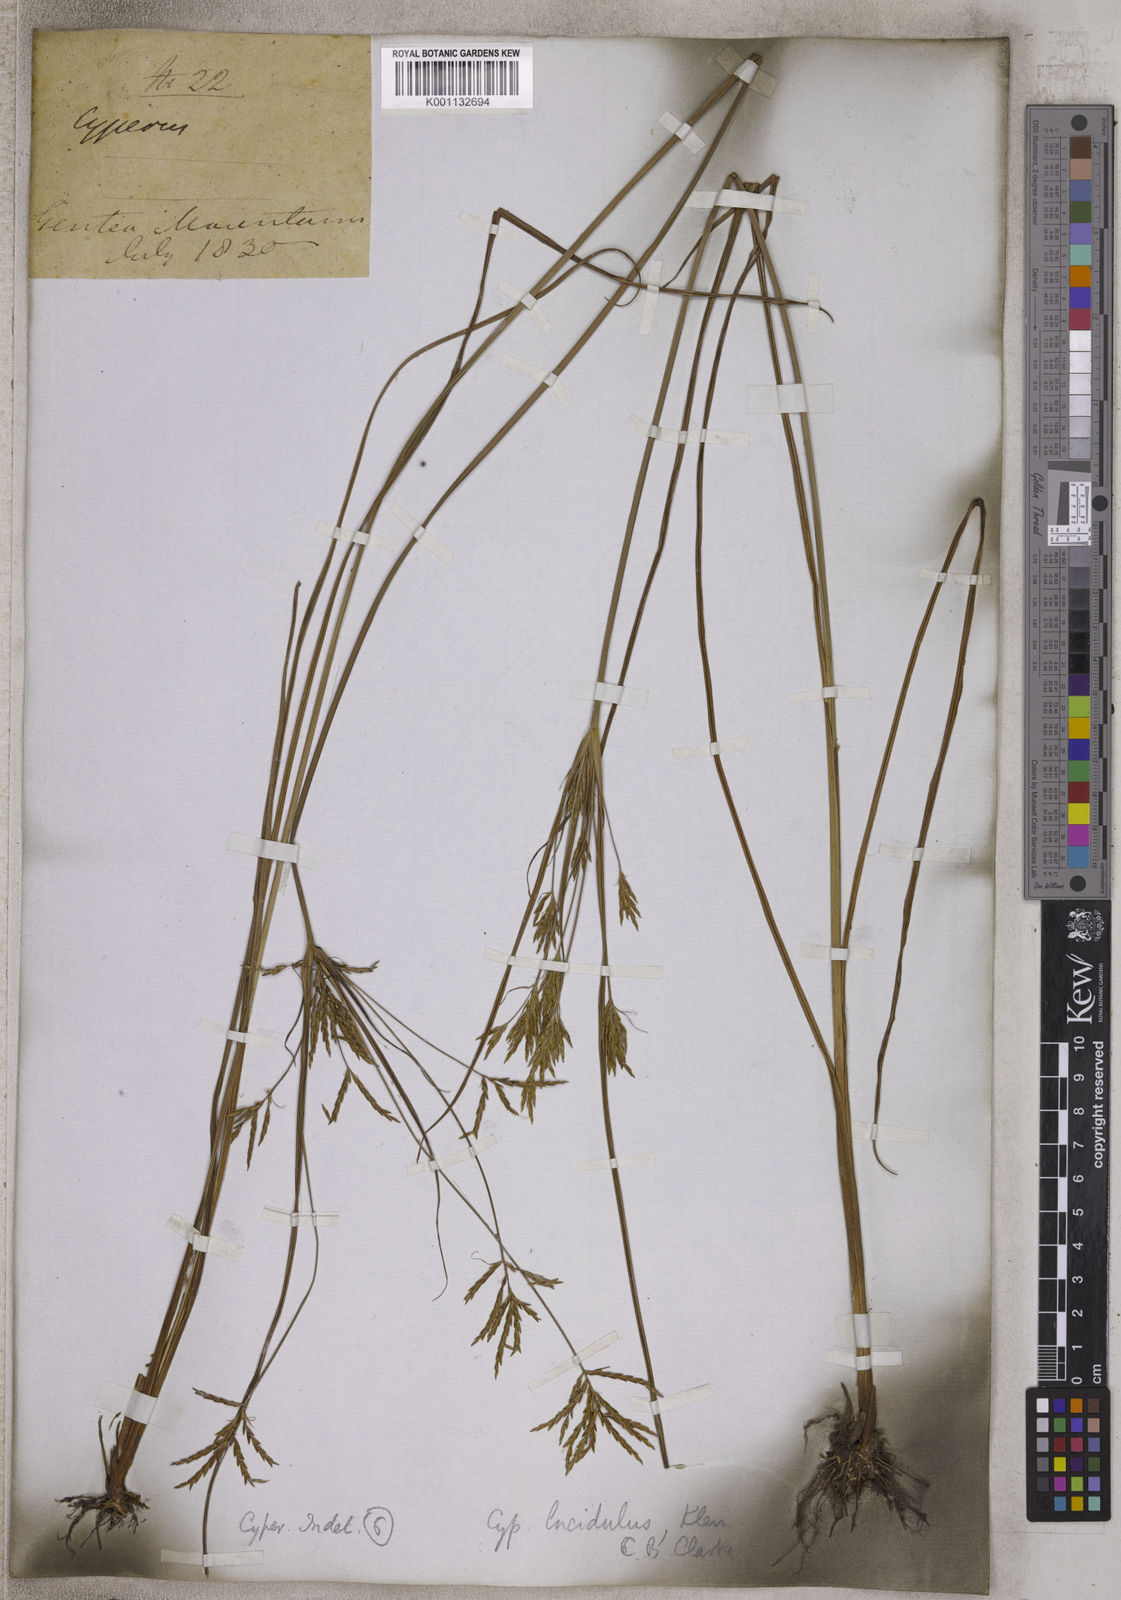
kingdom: Plantae
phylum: Tracheophyta
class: Liliopsida
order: Poales
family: Cyperaceae
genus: Cyperus
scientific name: Cyperus zollingeri
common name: Roadside flatsedge
